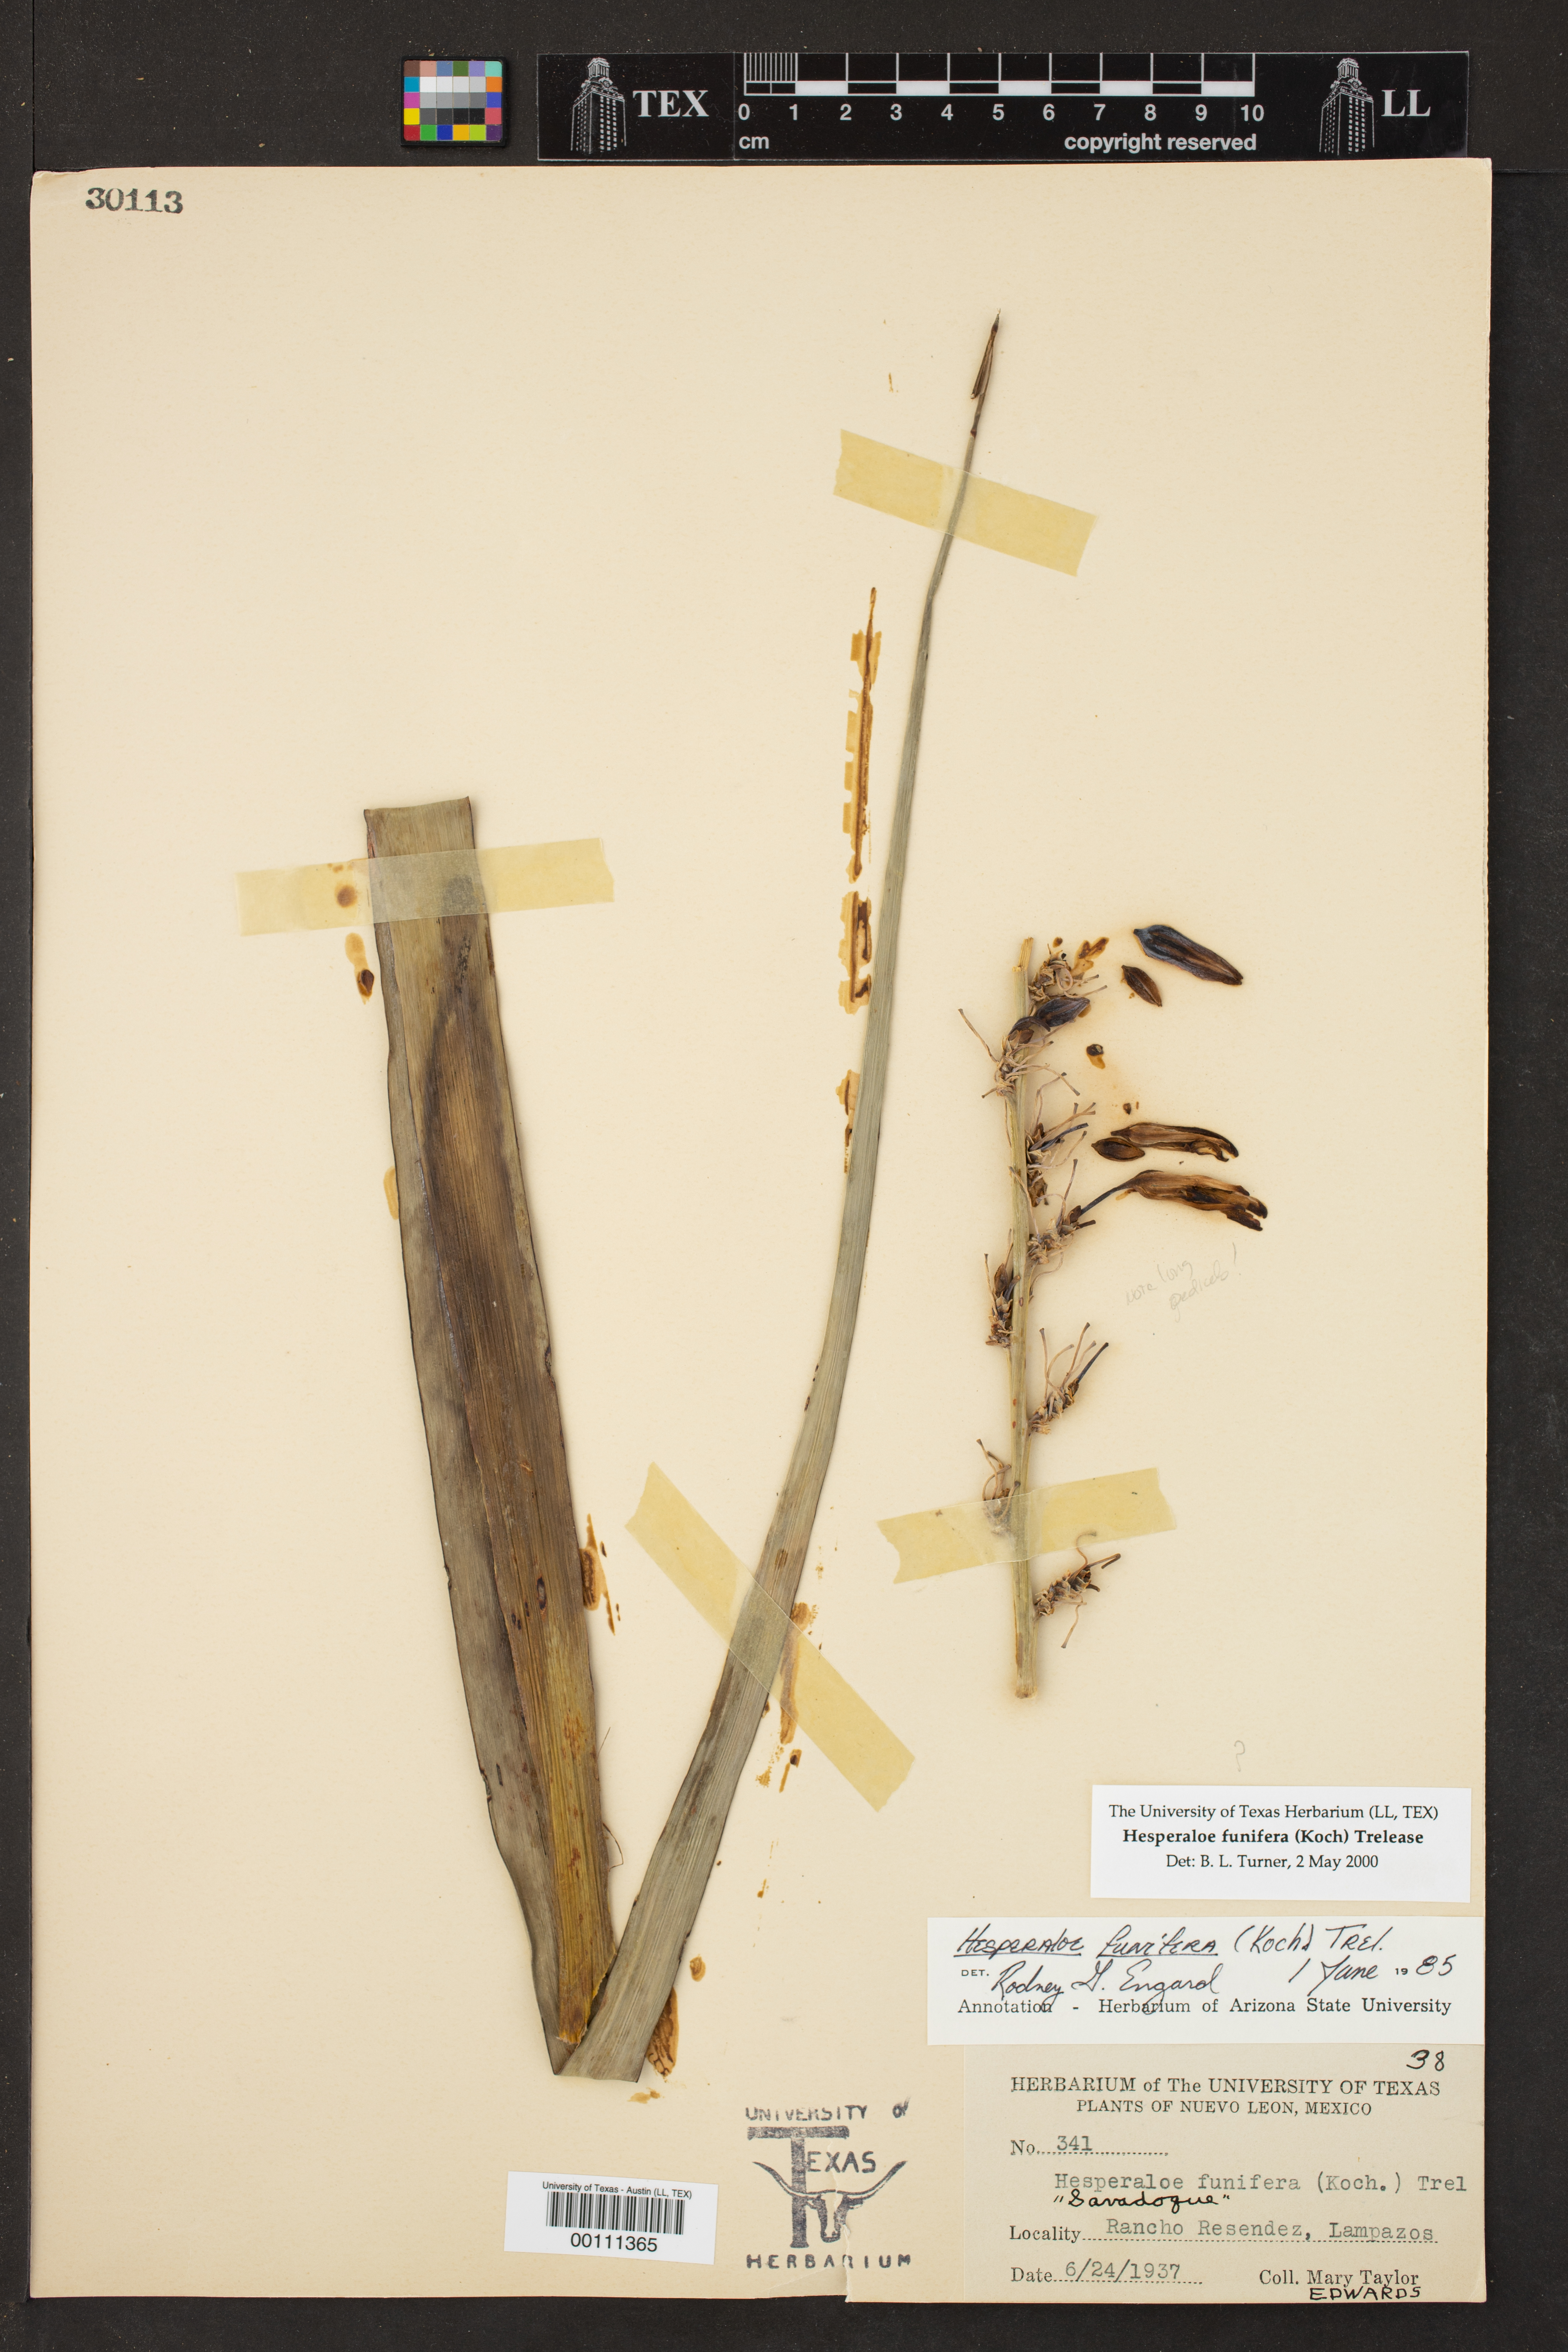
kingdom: Plantae
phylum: Tracheophyta
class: Liliopsida
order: Asparagales
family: Asparagaceae
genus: Hesperaloe
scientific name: Hesperaloe funifera
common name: Giant hesperaloe
